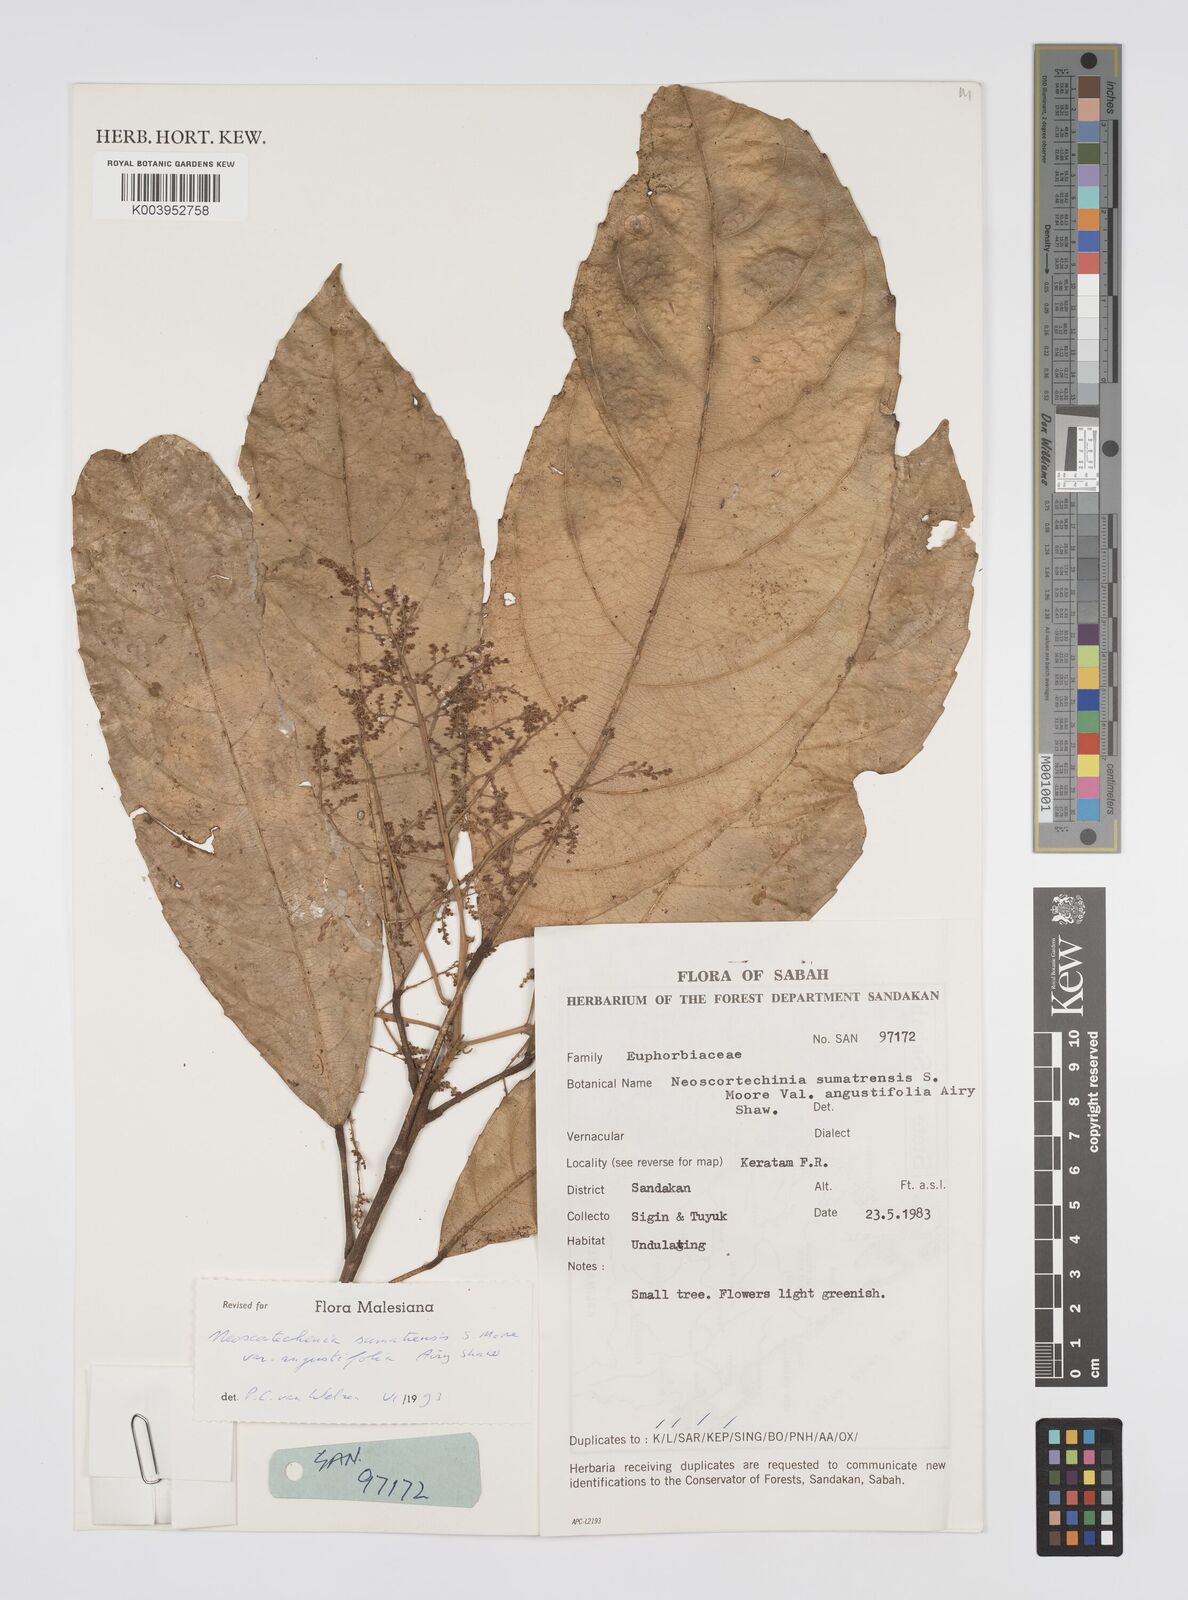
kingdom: Plantae
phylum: Tracheophyta
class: Magnoliopsida
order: Malpighiales
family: Euphorbiaceae
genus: Neoscortechinia
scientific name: Neoscortechinia angustifolia
